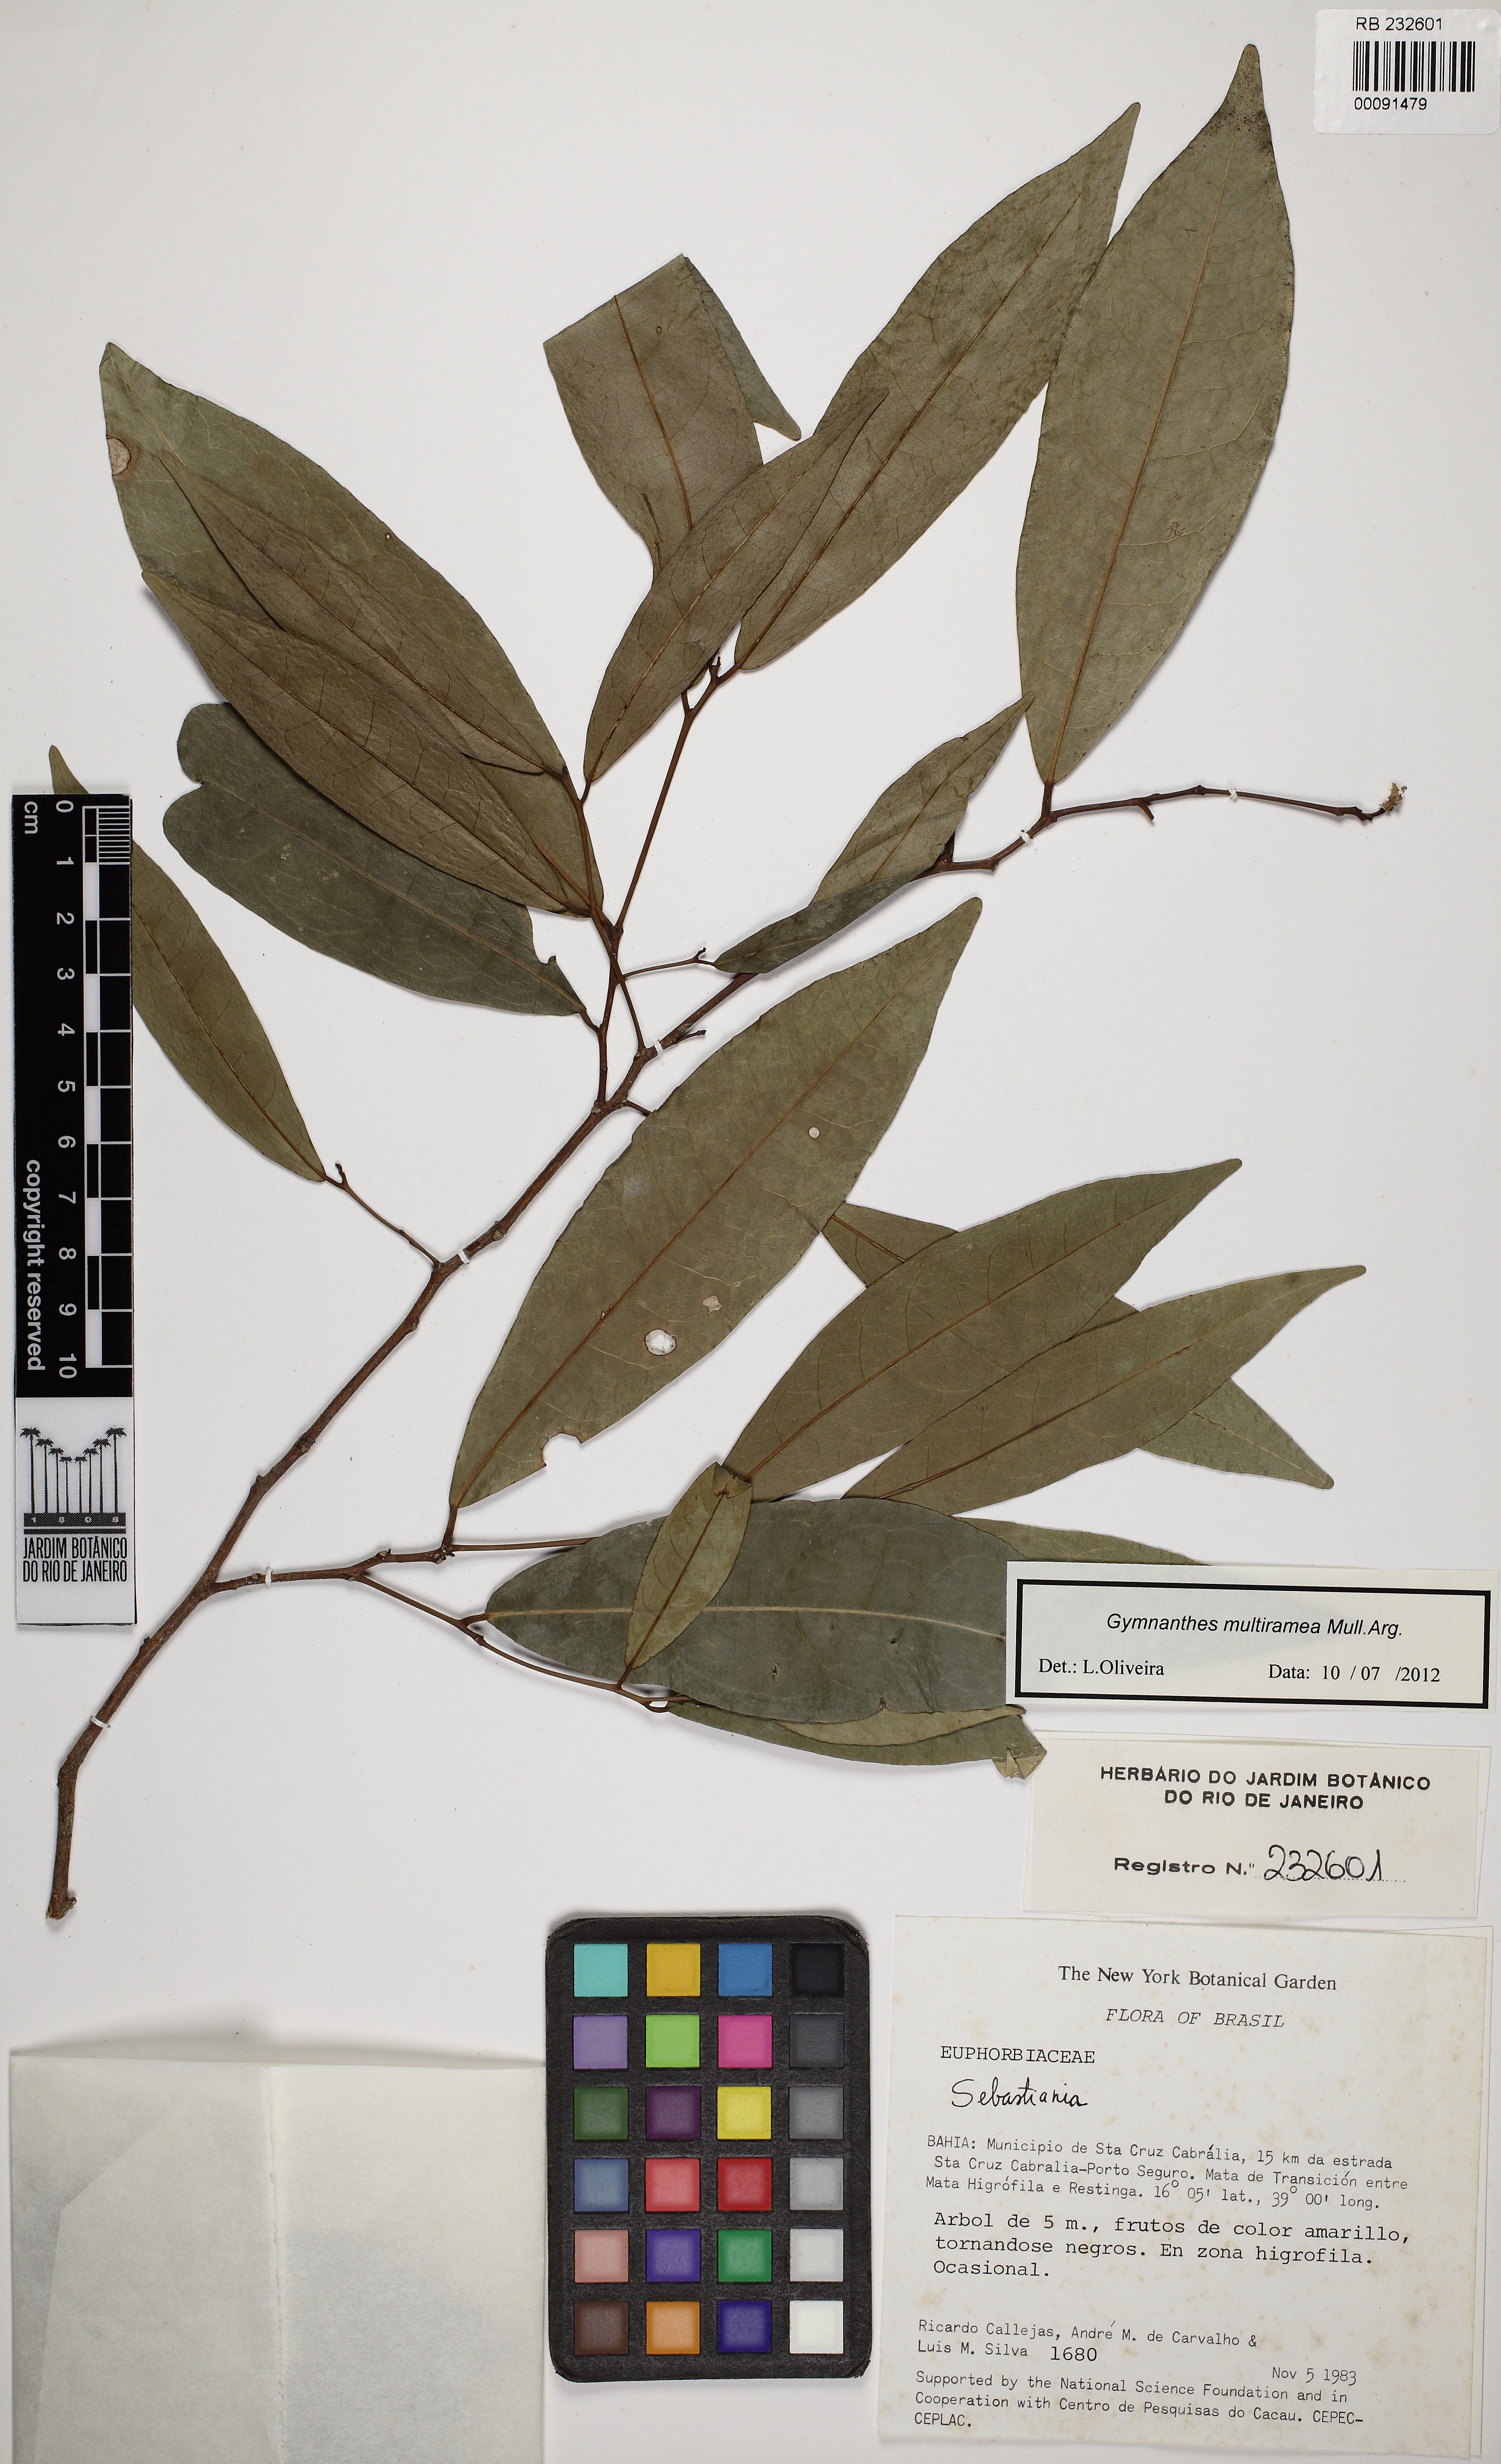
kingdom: Plantae
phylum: Tracheophyta
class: Magnoliopsida
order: Malpighiales
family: Euphorbiaceae
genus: Gymnanthes
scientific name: Gymnanthes glabrata
